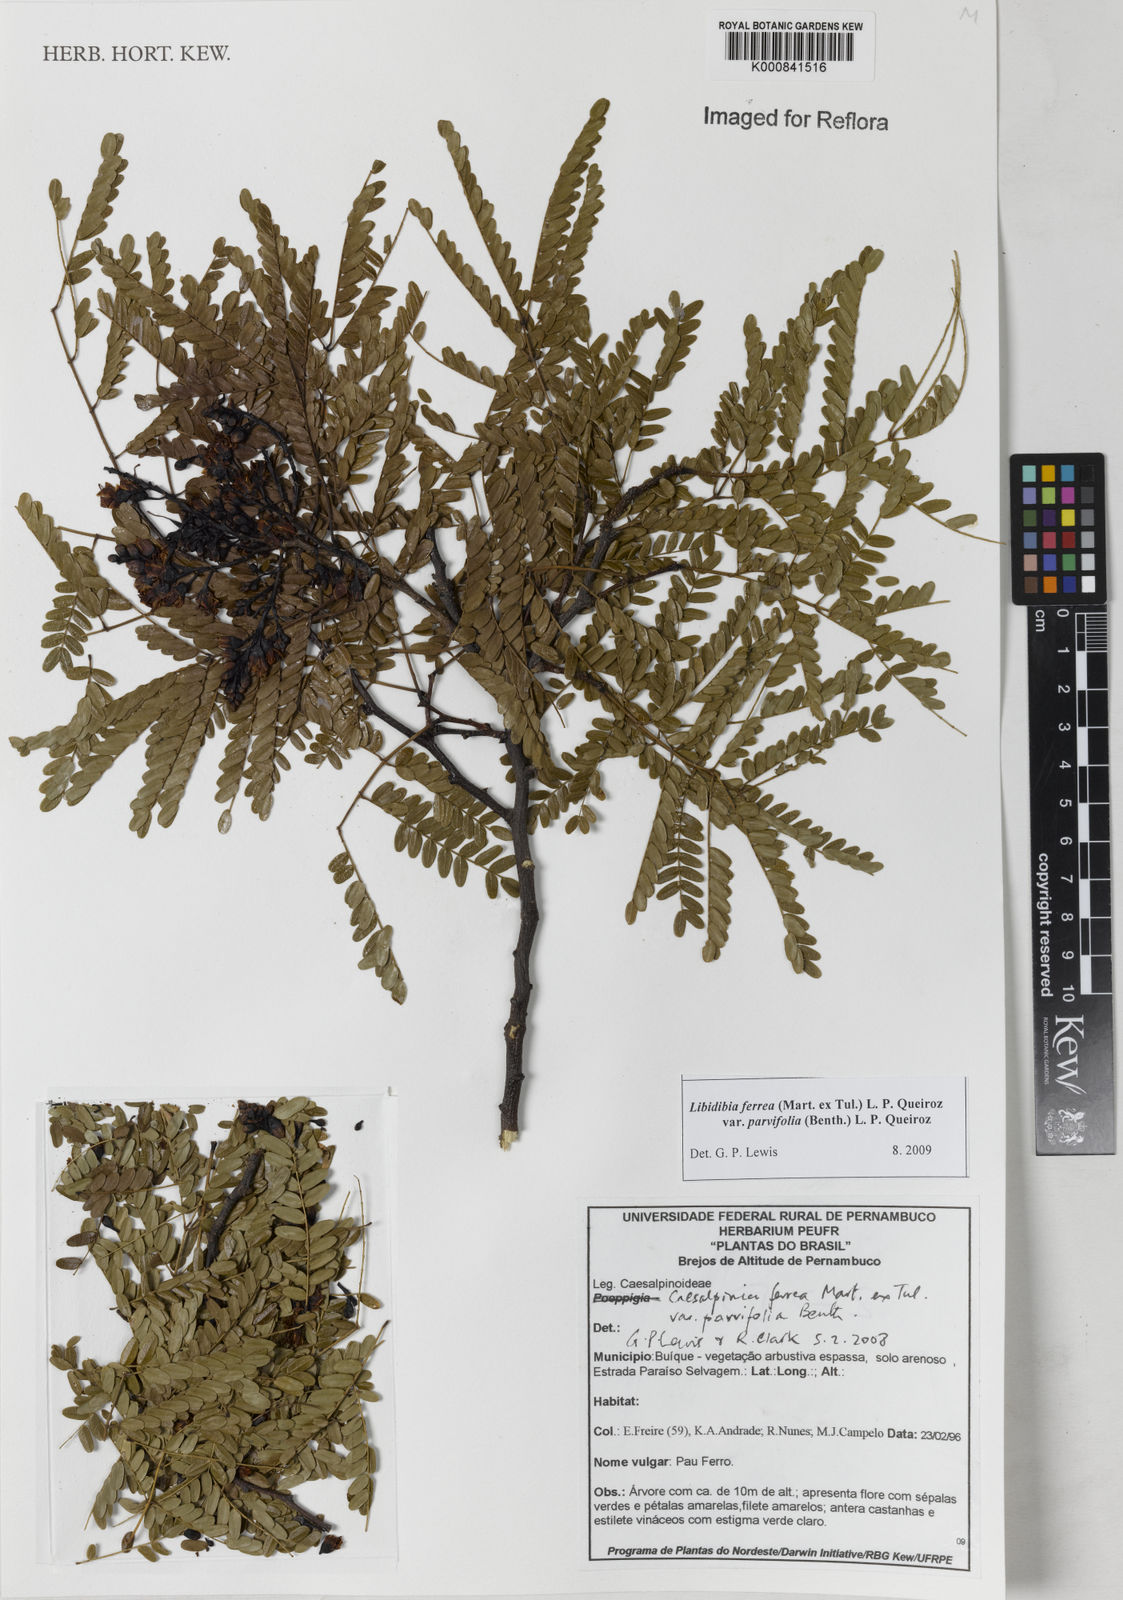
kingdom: Plantae
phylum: Tracheophyta
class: Magnoliopsida
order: Fabales
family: Fabaceae
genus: Cenostigma
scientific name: Cenostigma pyramidale
